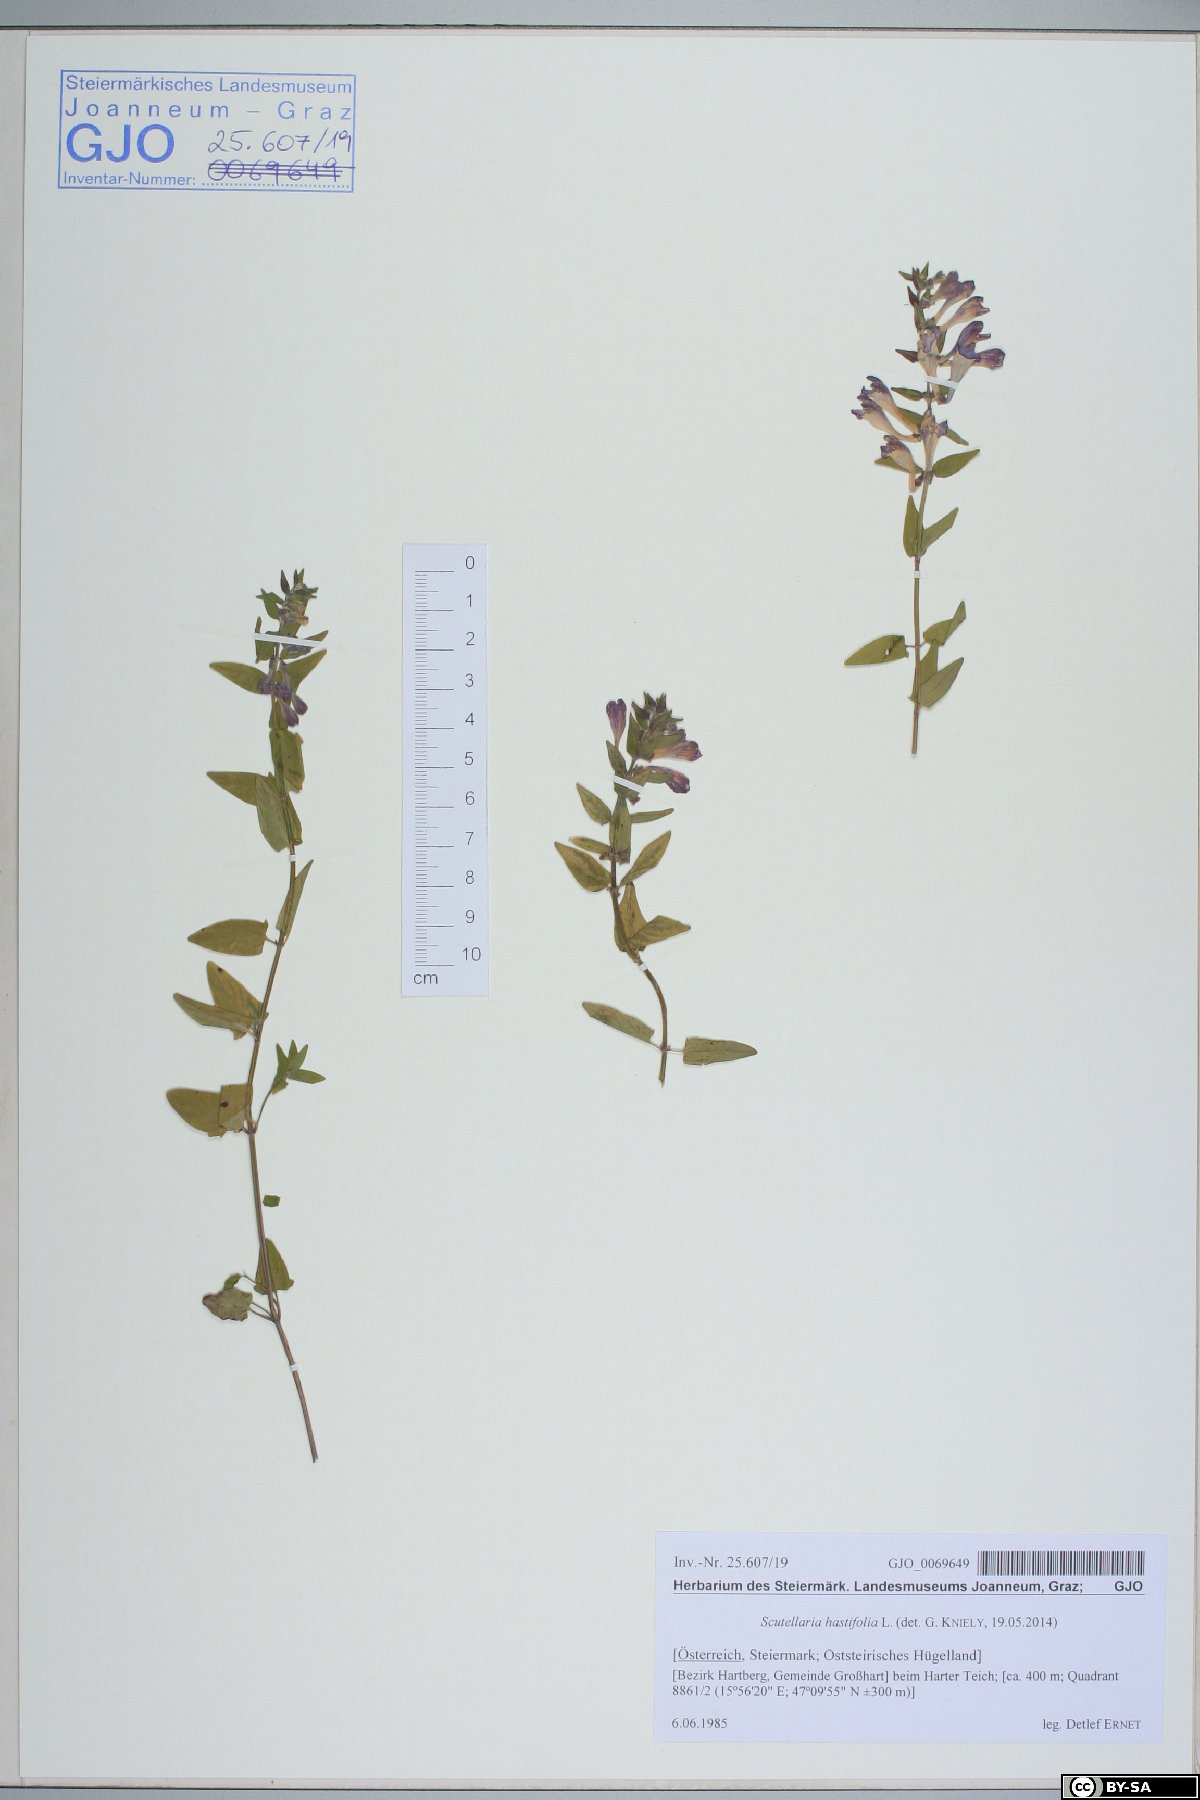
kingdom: Plantae
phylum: Tracheophyta
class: Magnoliopsida
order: Lamiales
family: Lamiaceae
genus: Scutellaria
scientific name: Scutellaria hastifolia
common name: Norfolk skullcap
